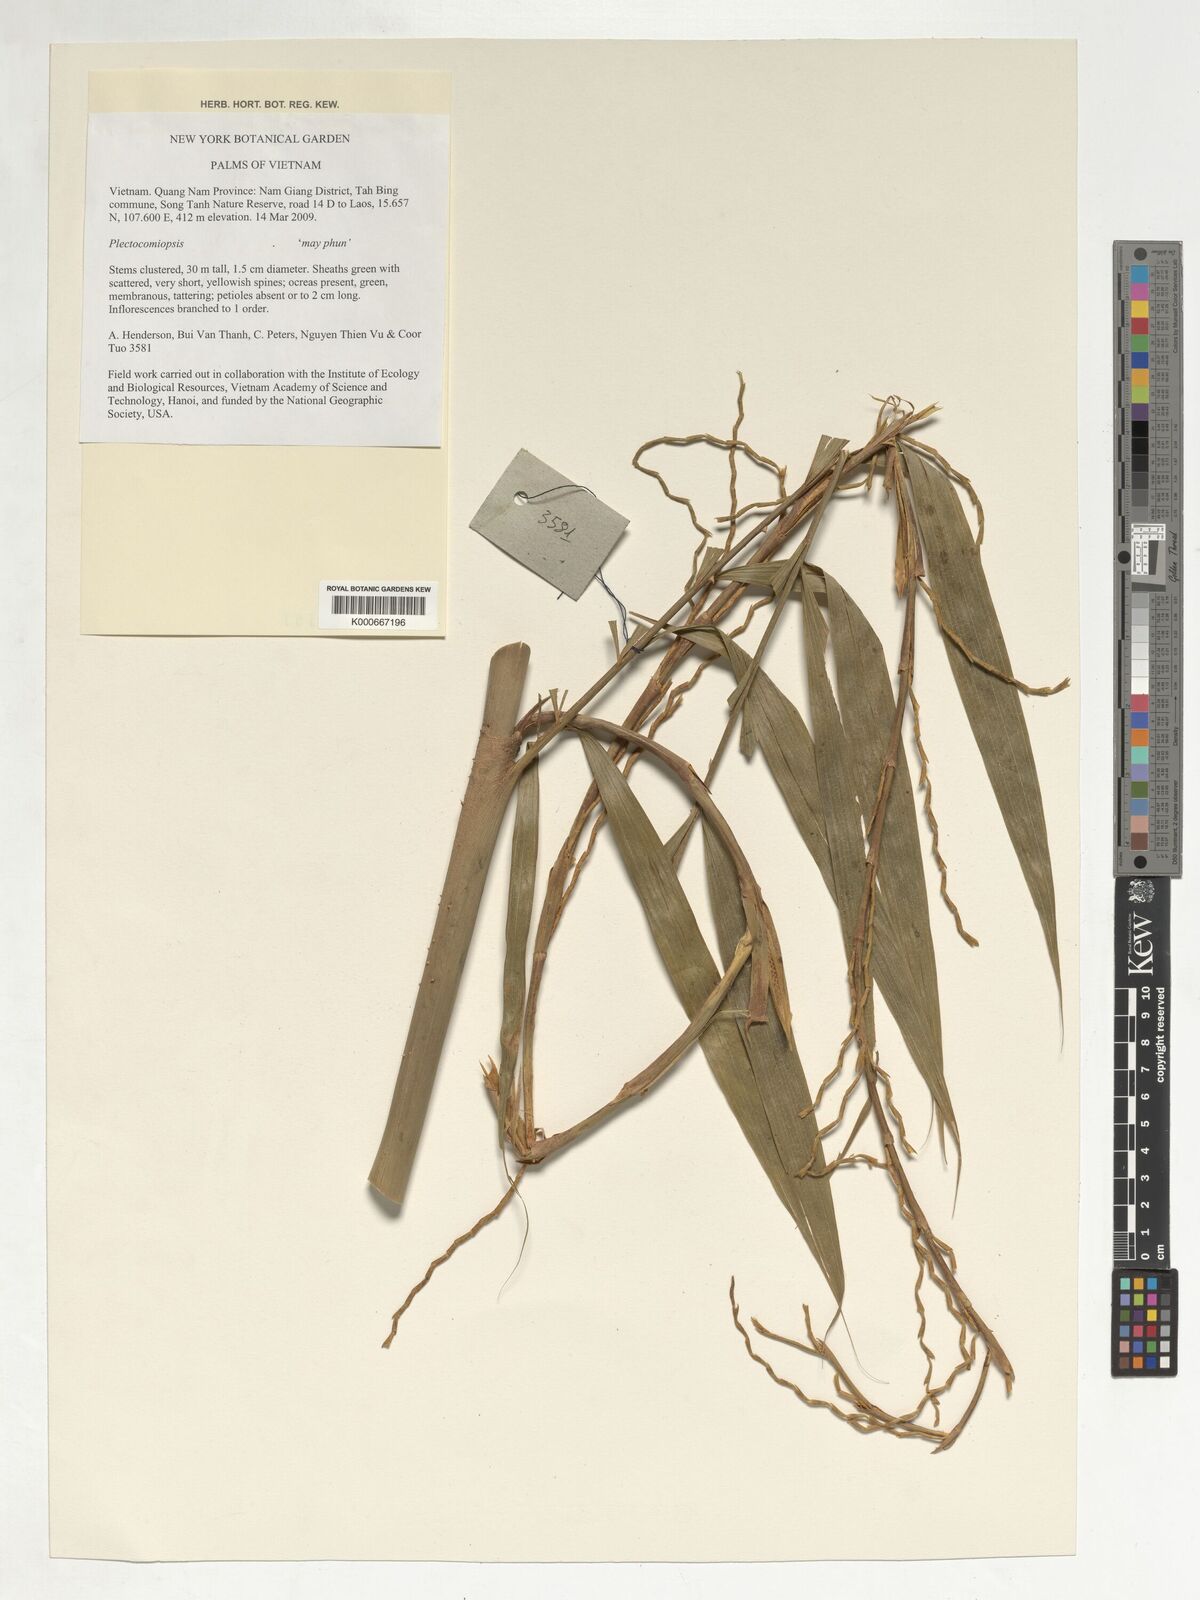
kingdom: Plantae
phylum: Tracheophyta
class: Liliopsida
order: Arecales
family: Arecaceae
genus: Plectocomiopsis
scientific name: Plectocomiopsis
